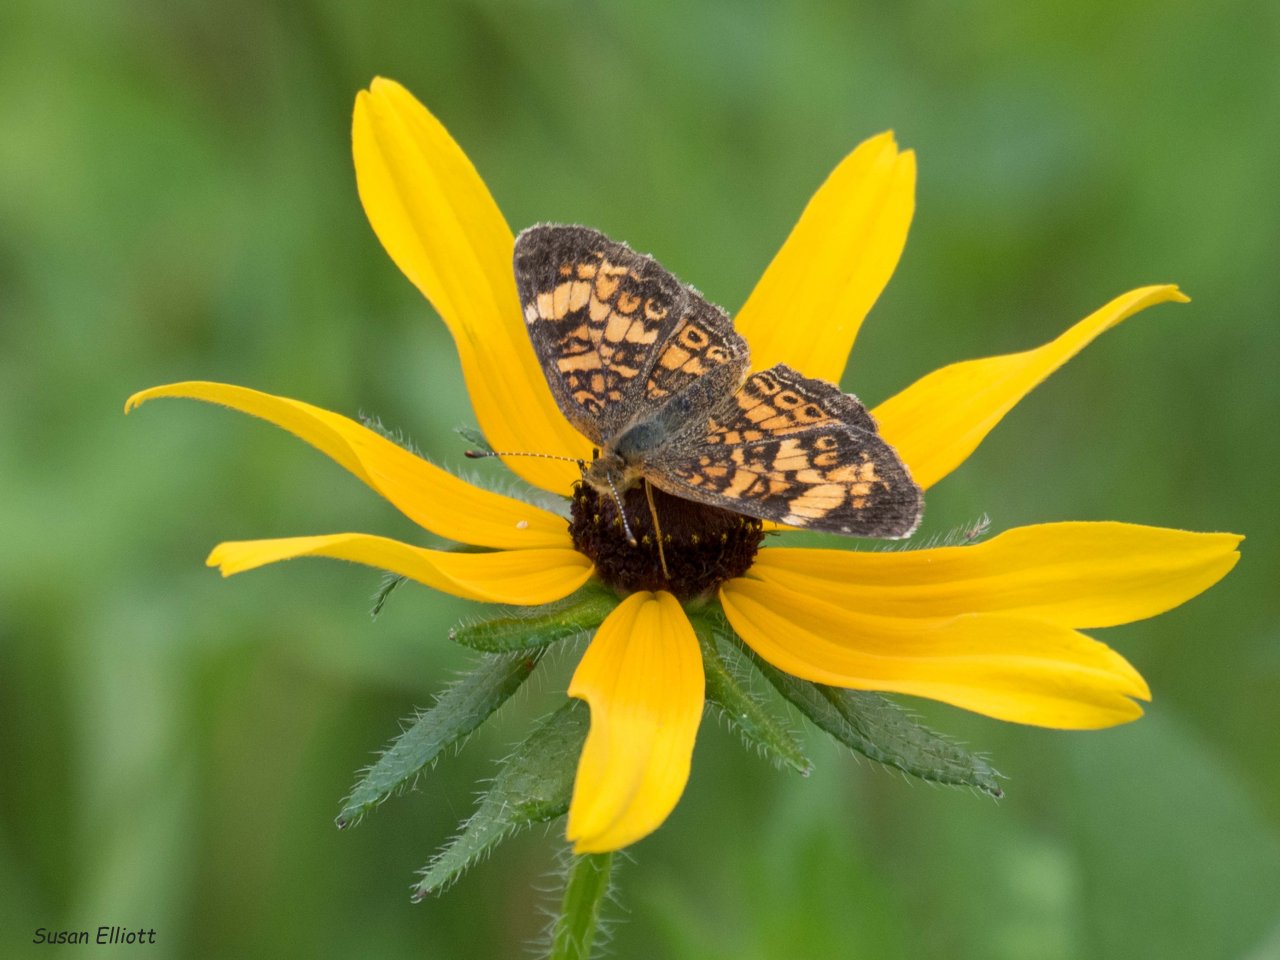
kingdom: Animalia
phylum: Arthropoda
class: Insecta
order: Lepidoptera
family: Nymphalidae
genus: Phyciodes
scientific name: Phyciodes
